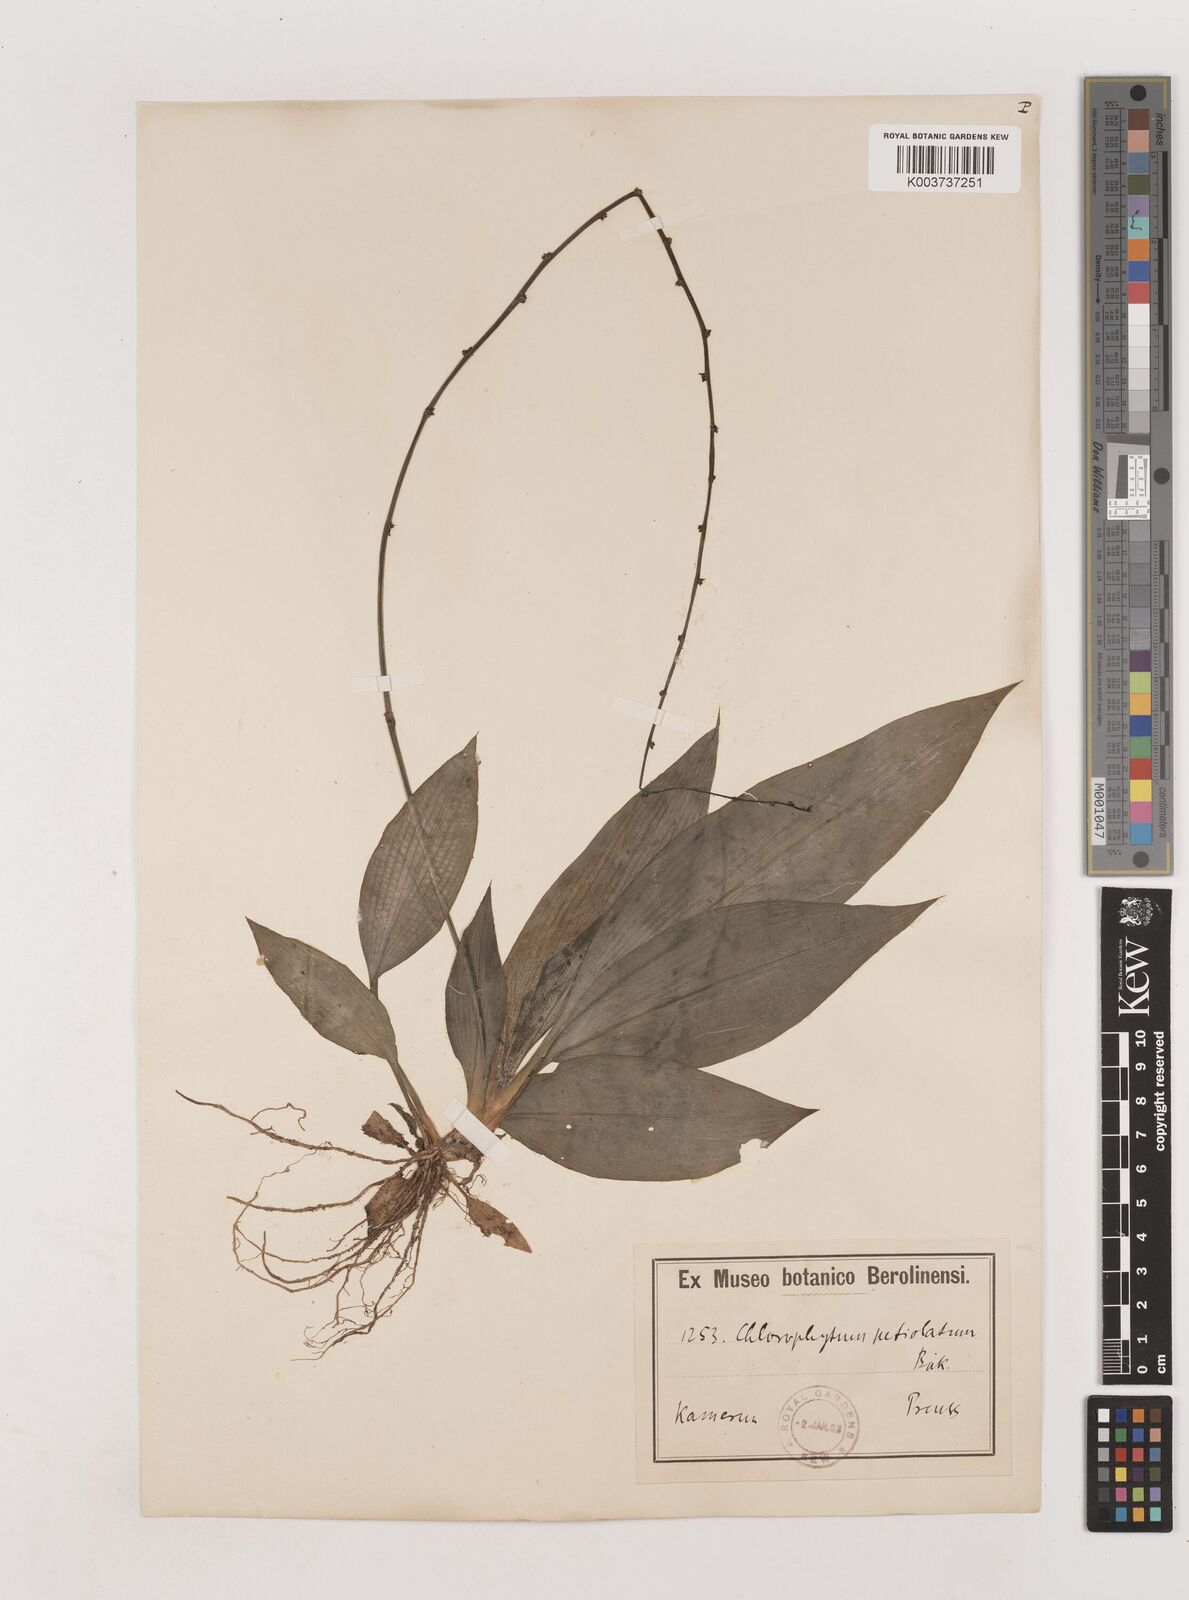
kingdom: Plantae
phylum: Tracheophyta
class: Liliopsida
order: Asparagales
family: Asparagaceae
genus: Chlorophytum
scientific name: Chlorophytum sparsiflorum
